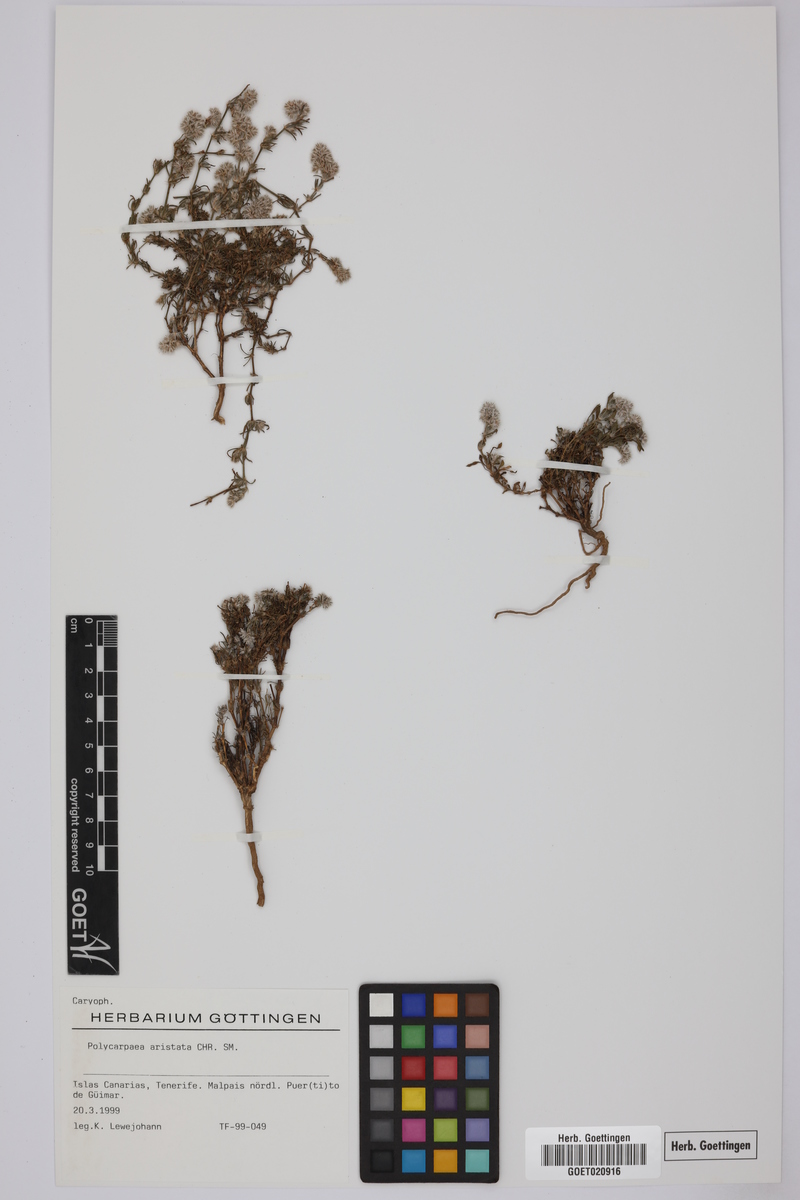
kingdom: Plantae
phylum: Tracheophyta
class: Magnoliopsida
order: Caryophyllales
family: Caryophyllaceae
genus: Polycarpaea
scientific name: Polycarpaea aristata
